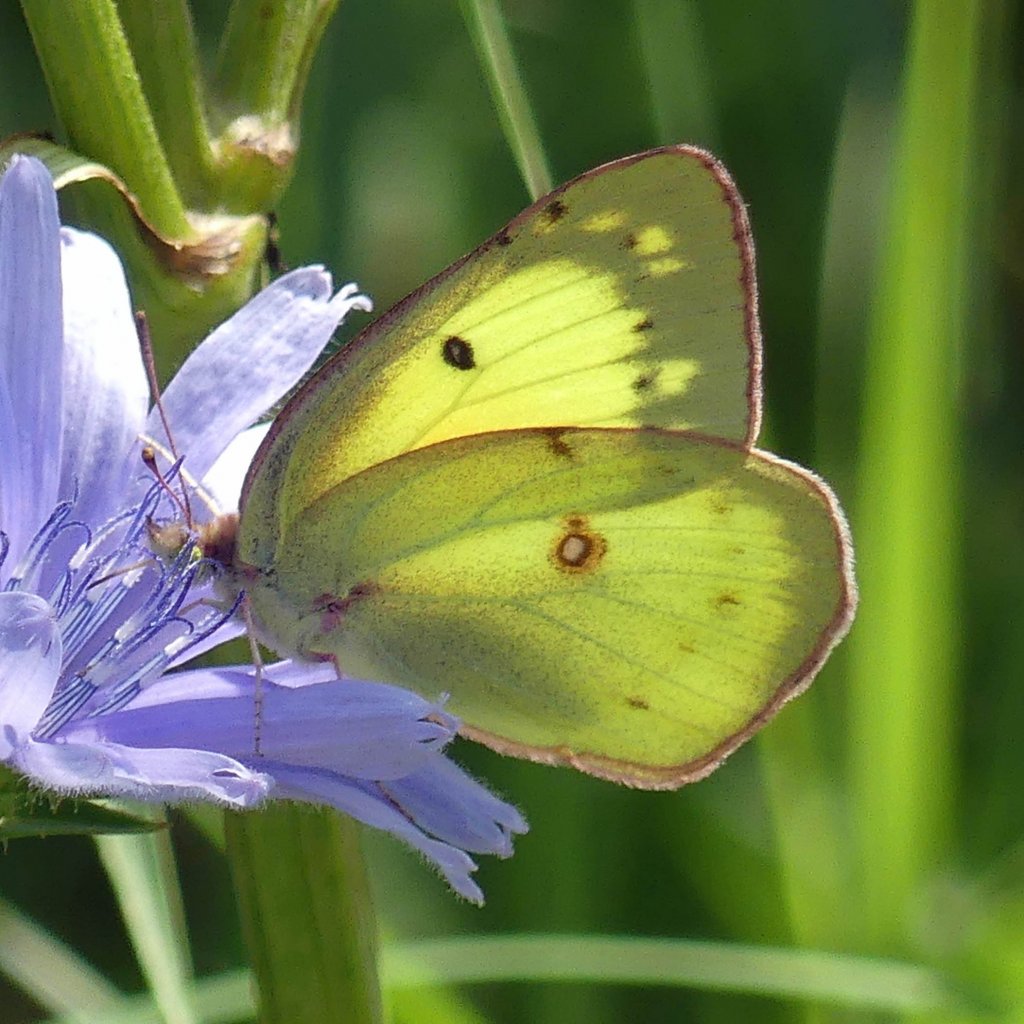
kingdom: Animalia
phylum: Arthropoda
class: Insecta
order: Lepidoptera
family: Pieridae
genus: Colias
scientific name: Colias philodice
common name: Clouded Sulphur
